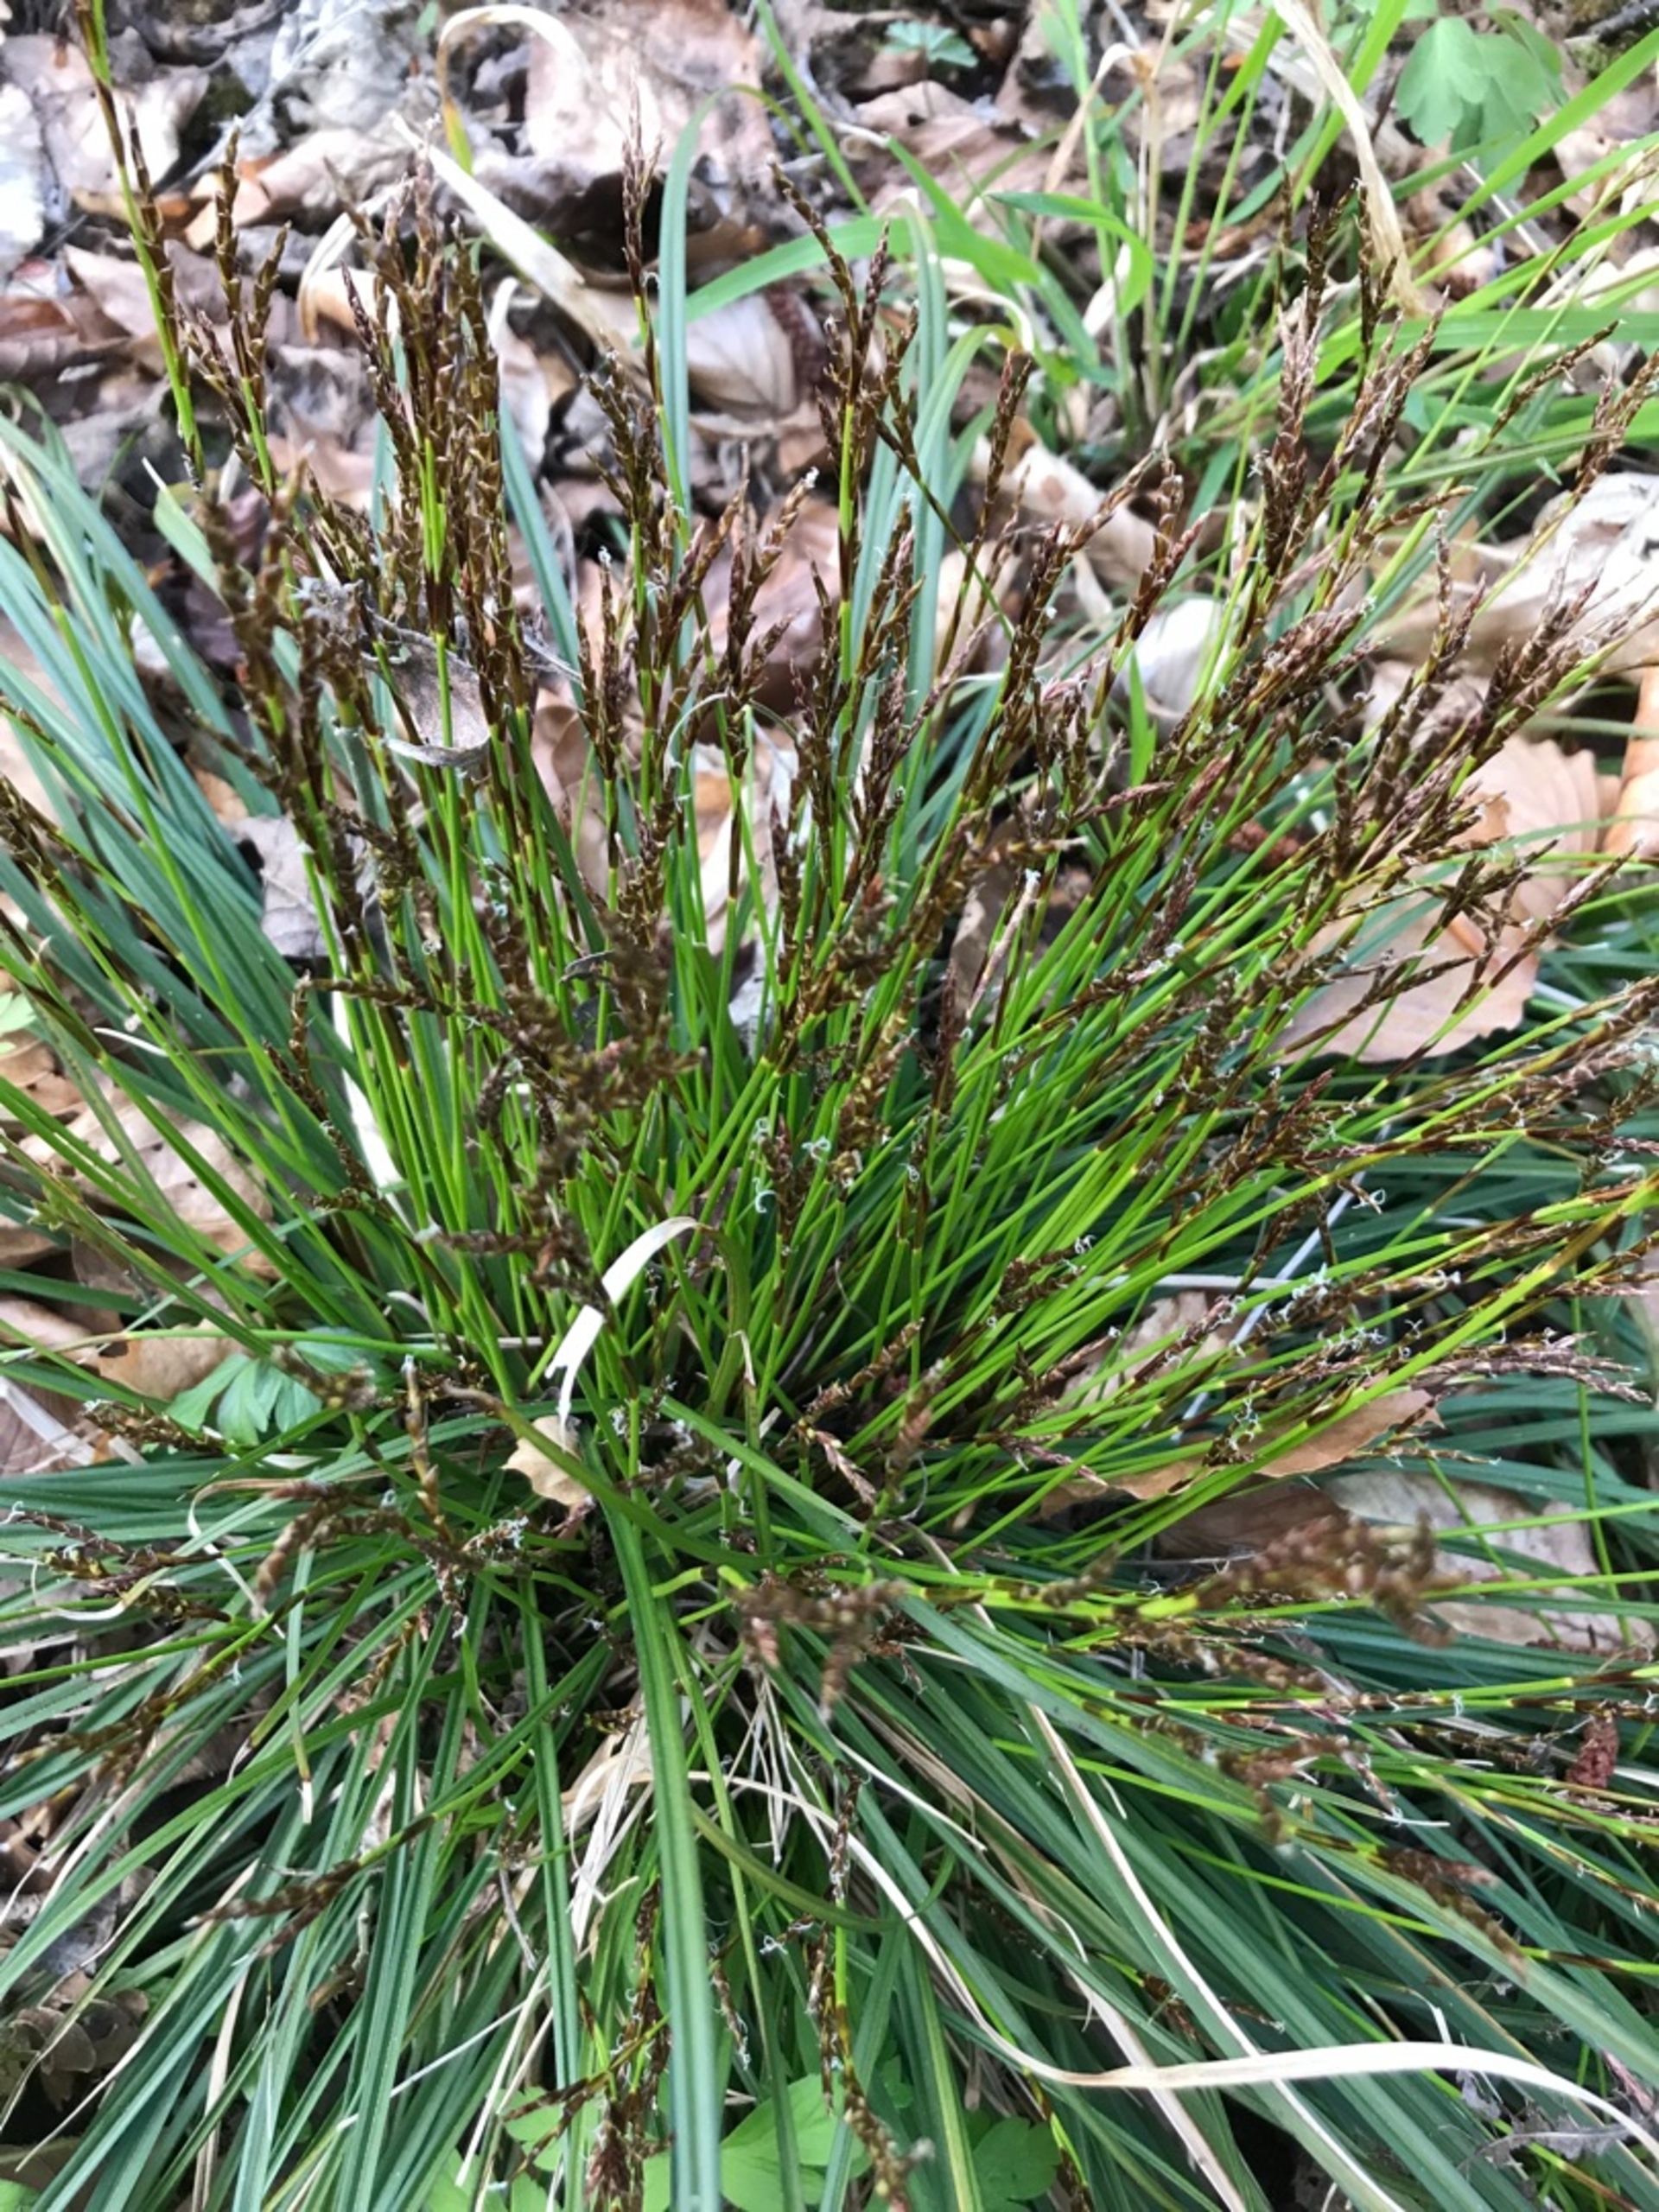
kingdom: Plantae
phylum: Tracheophyta
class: Liliopsida
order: Poales
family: Cyperaceae
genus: Carex
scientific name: Carex digitata
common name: Finger-star
